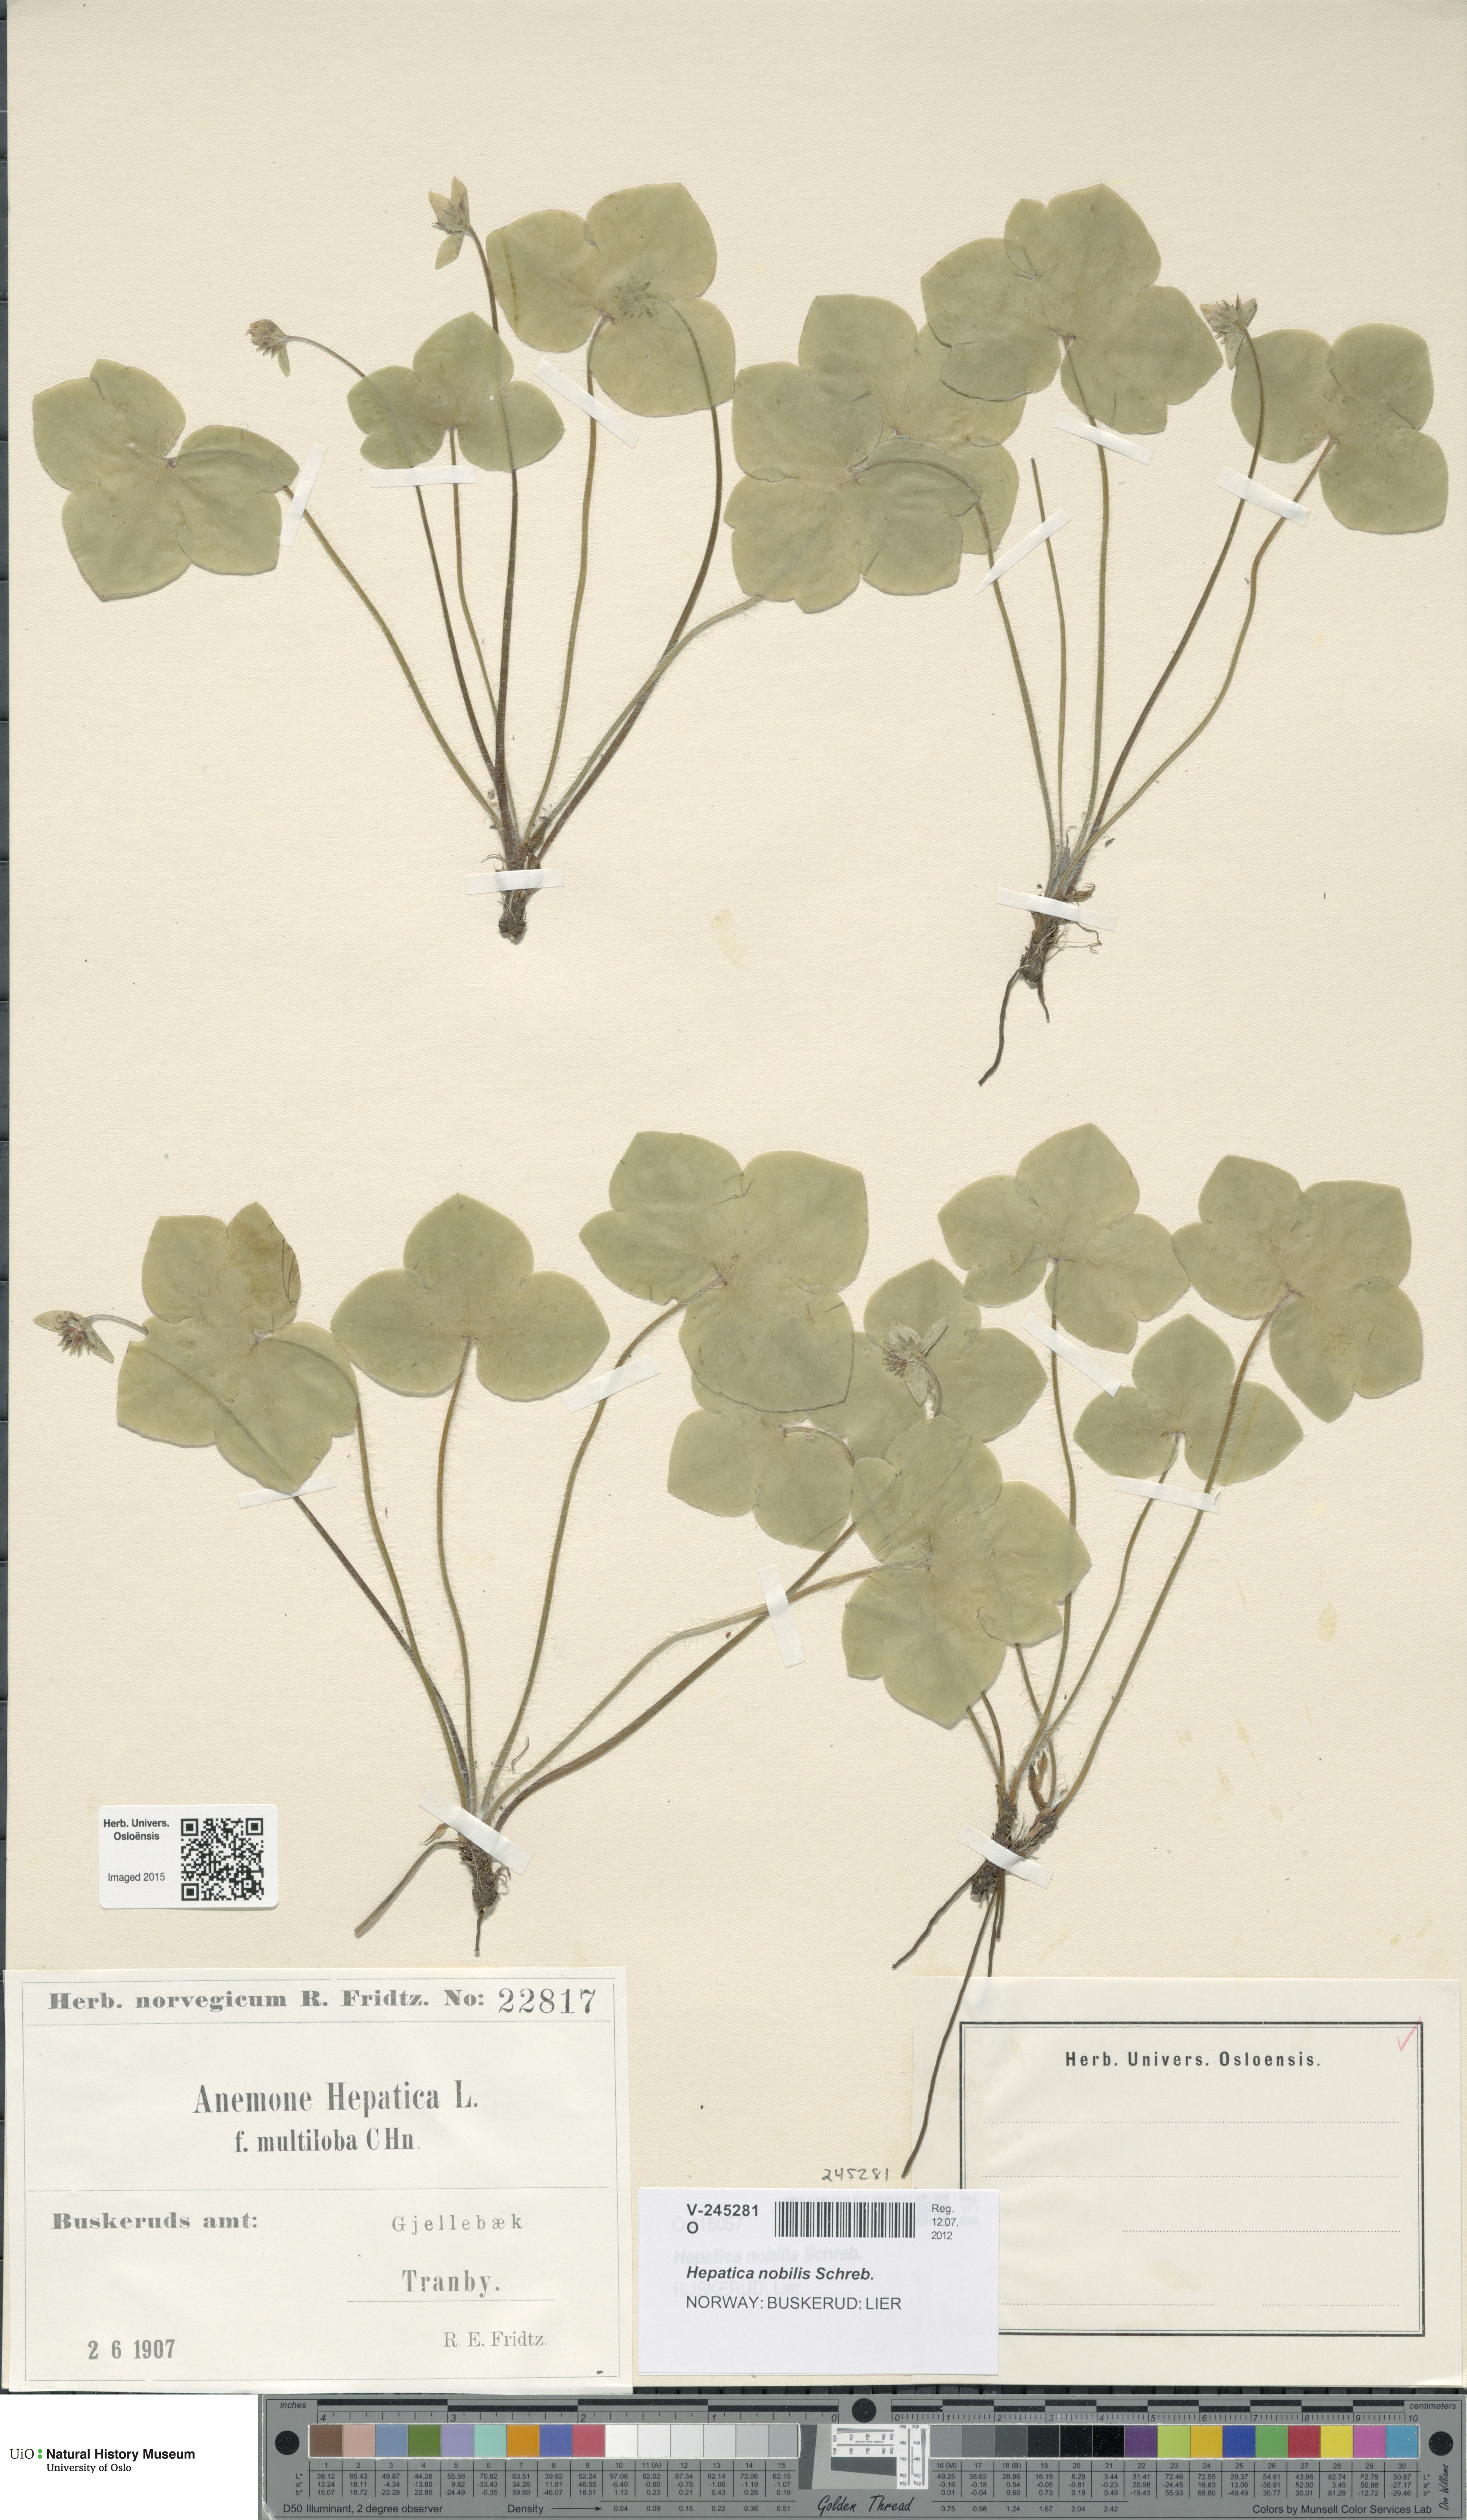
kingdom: Plantae
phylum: Tracheophyta
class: Magnoliopsida
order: Ranunculales
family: Ranunculaceae
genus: Hepatica
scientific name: Hepatica nobilis
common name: Liverleaf
